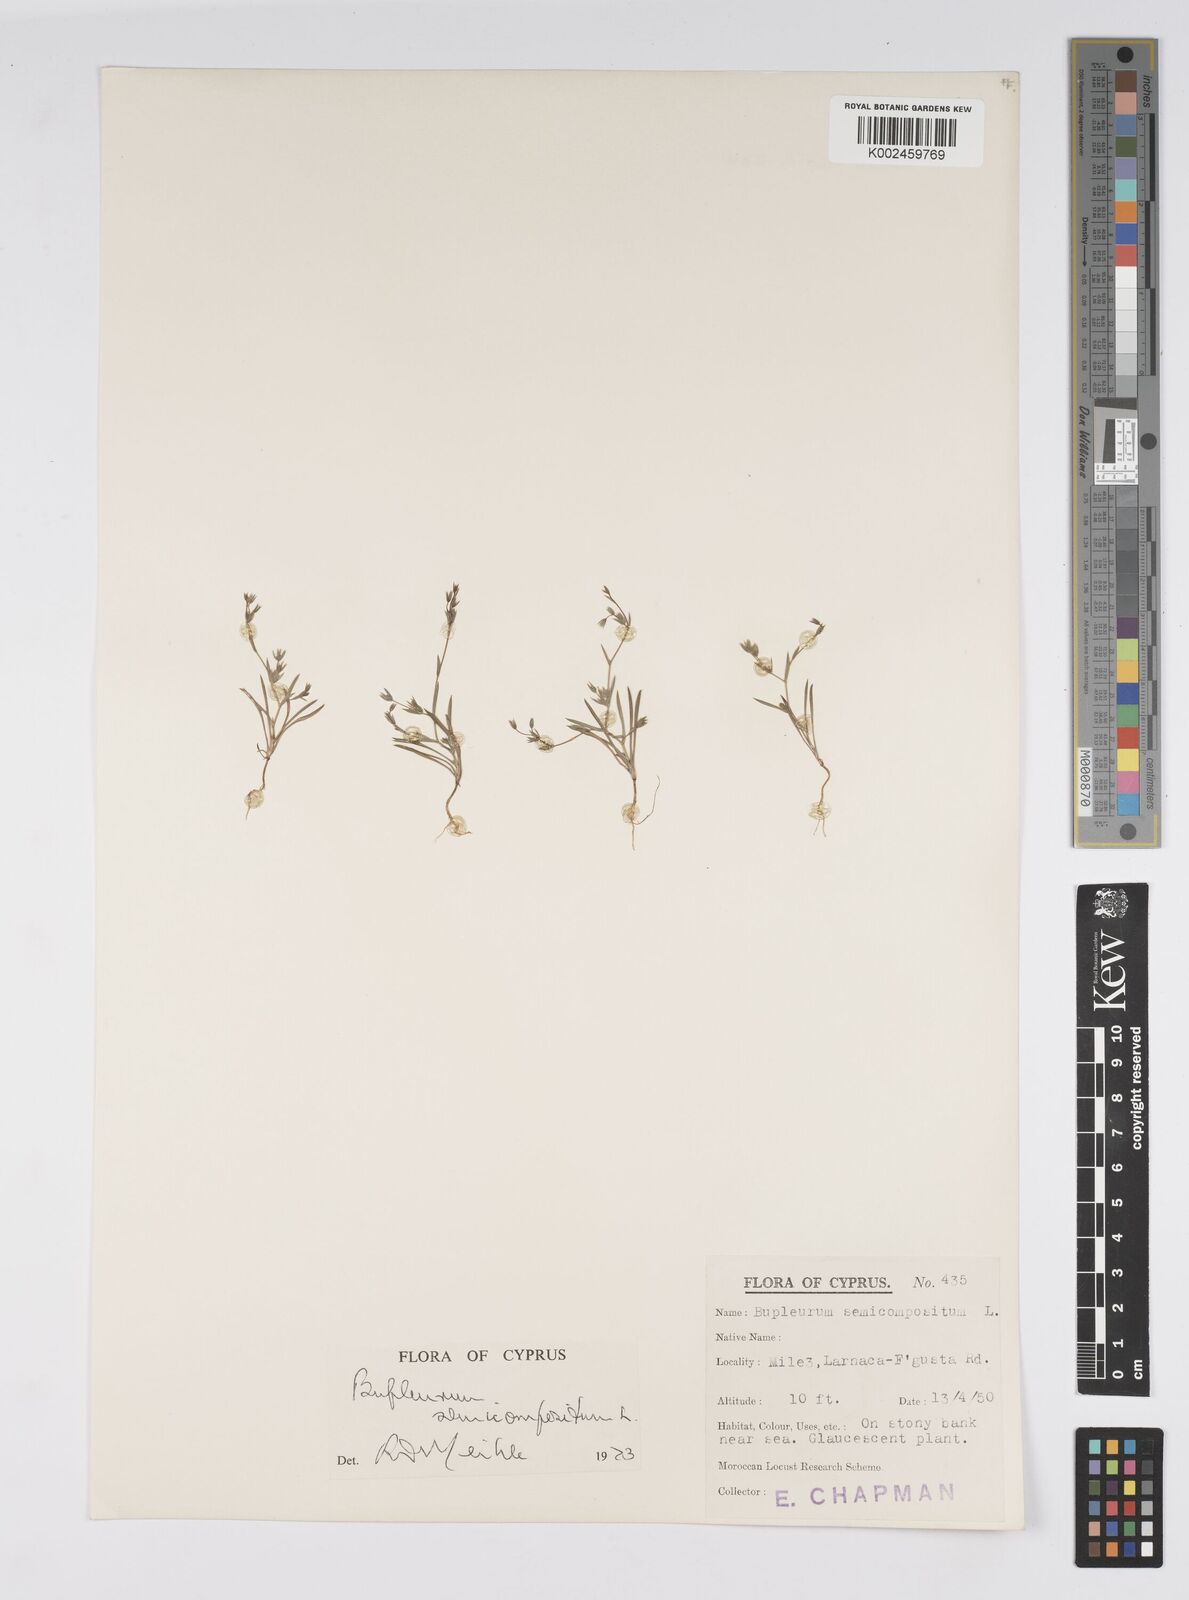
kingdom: Plantae
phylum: Tracheophyta
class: Magnoliopsida
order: Apiales
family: Apiaceae
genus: Bupleurum
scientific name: Bupleurum semicompositum
